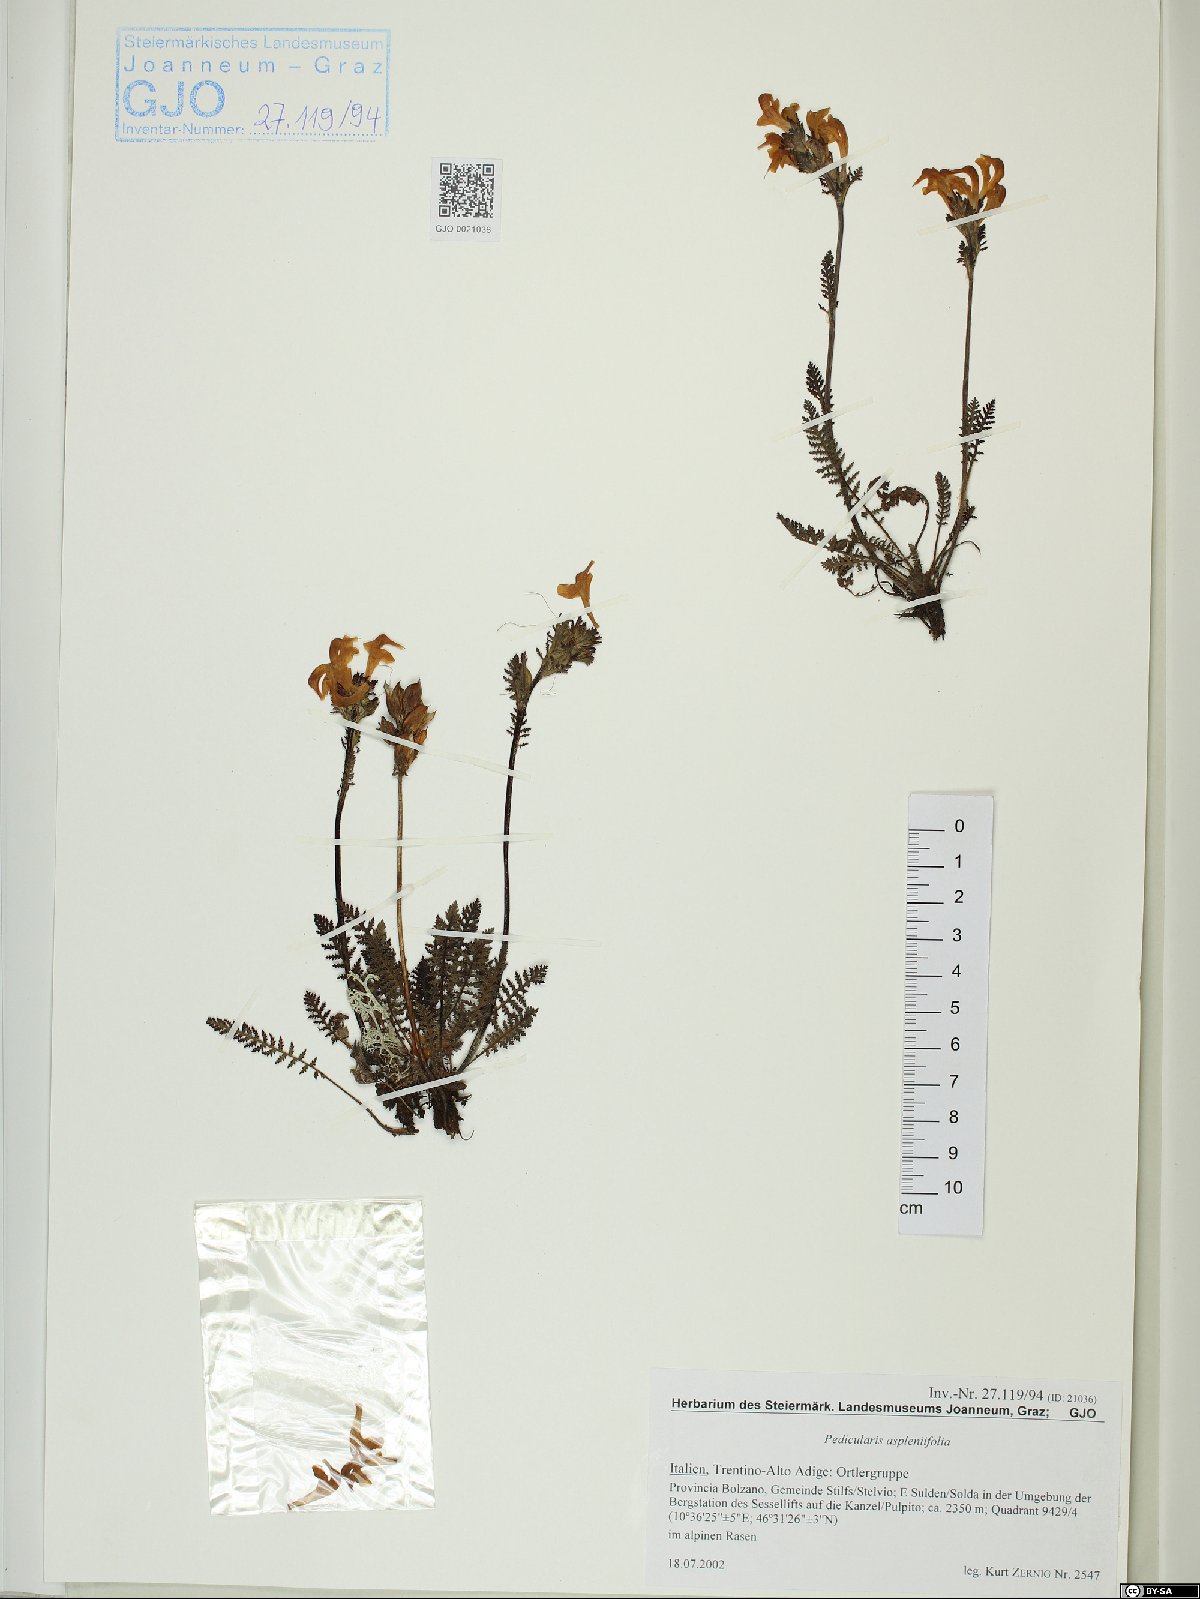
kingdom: Plantae
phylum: Tracheophyta
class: Magnoliopsida
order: Lamiales
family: Orobanchaceae
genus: Pedicularis
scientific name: Pedicularis asplenifolia
